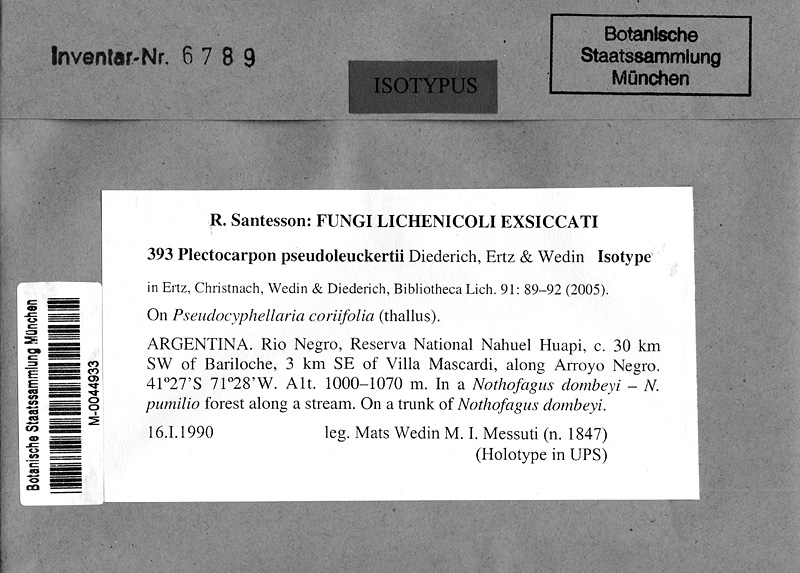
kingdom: Fungi
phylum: Ascomycota
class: Lecanoromycetes
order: Peltigerales
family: Lobariaceae
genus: Pseudocyphellaria
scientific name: Pseudocyphellaria coriifolia
